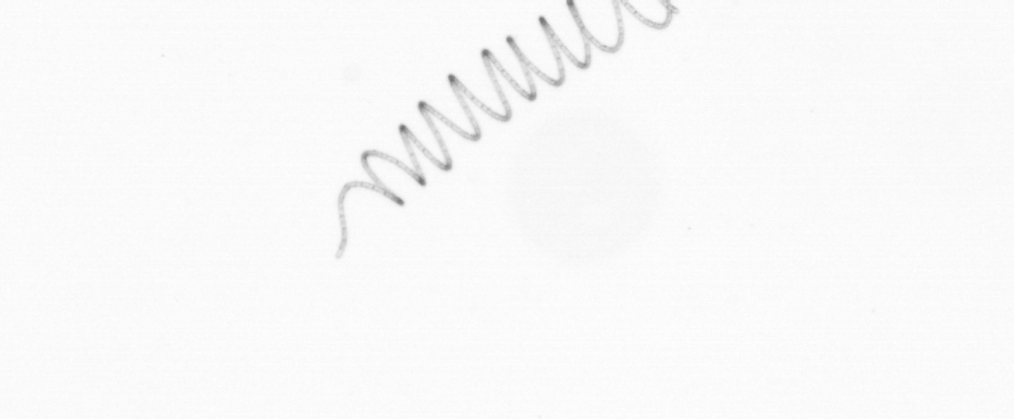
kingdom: Chromista
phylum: Ochrophyta
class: Bacillariophyceae
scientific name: Bacillariophyceae
